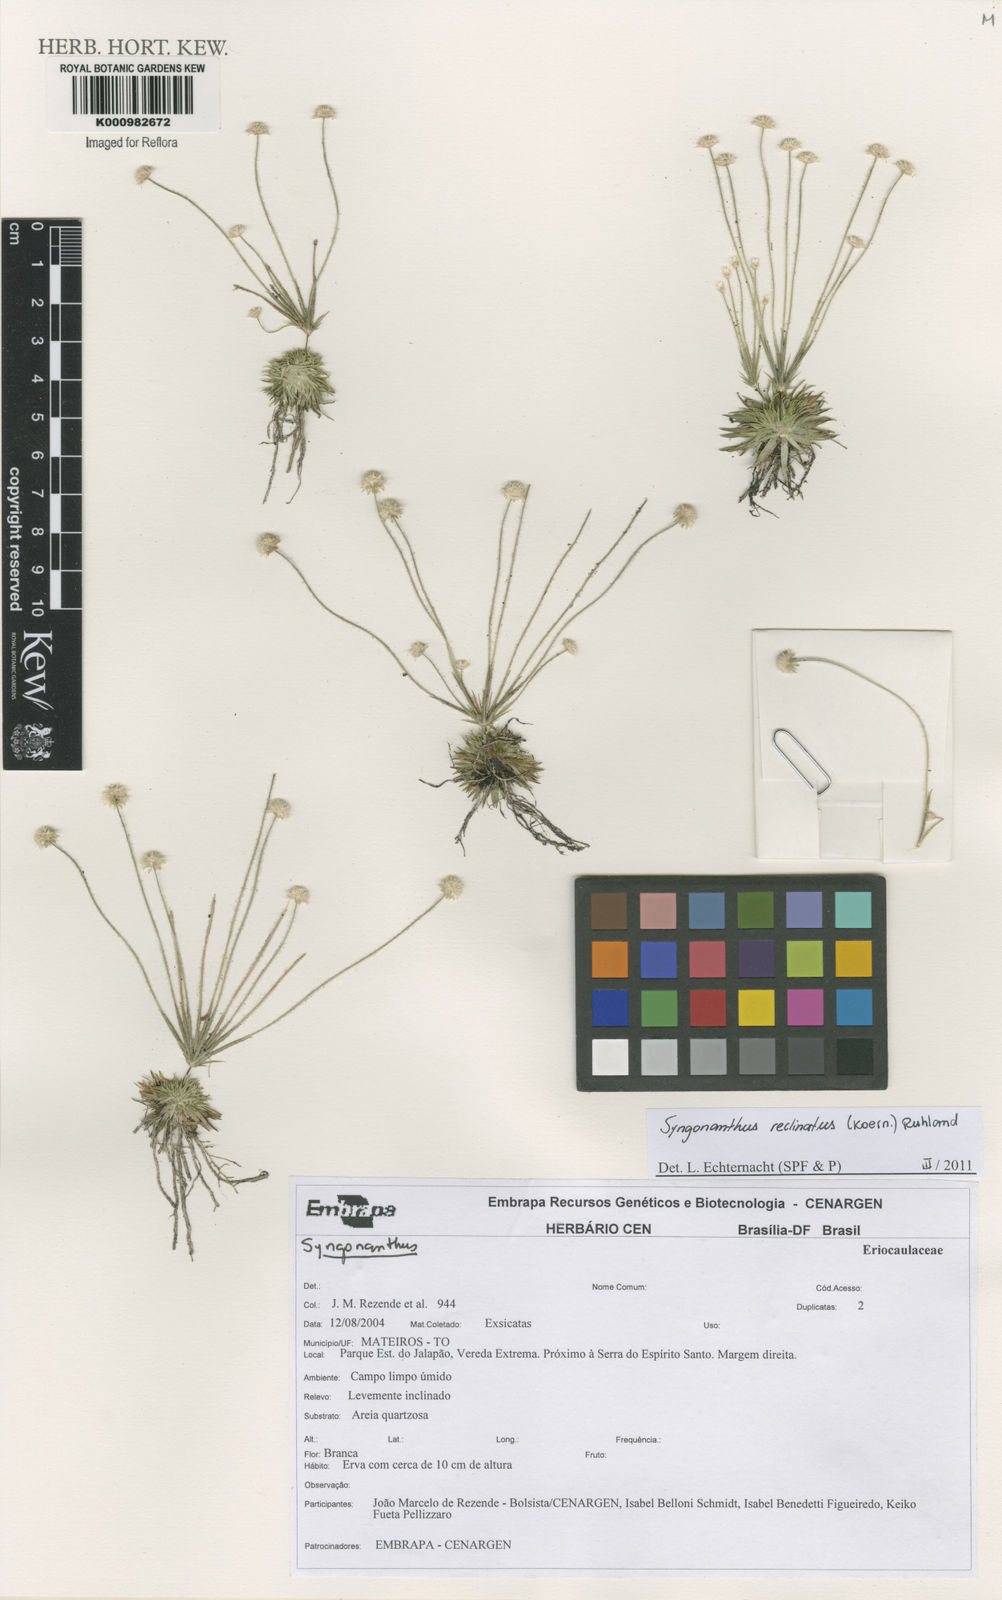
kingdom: Plantae
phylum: Tracheophyta
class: Liliopsida
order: Poales
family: Eriocaulaceae
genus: Syngonanthus
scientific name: Syngonanthus
